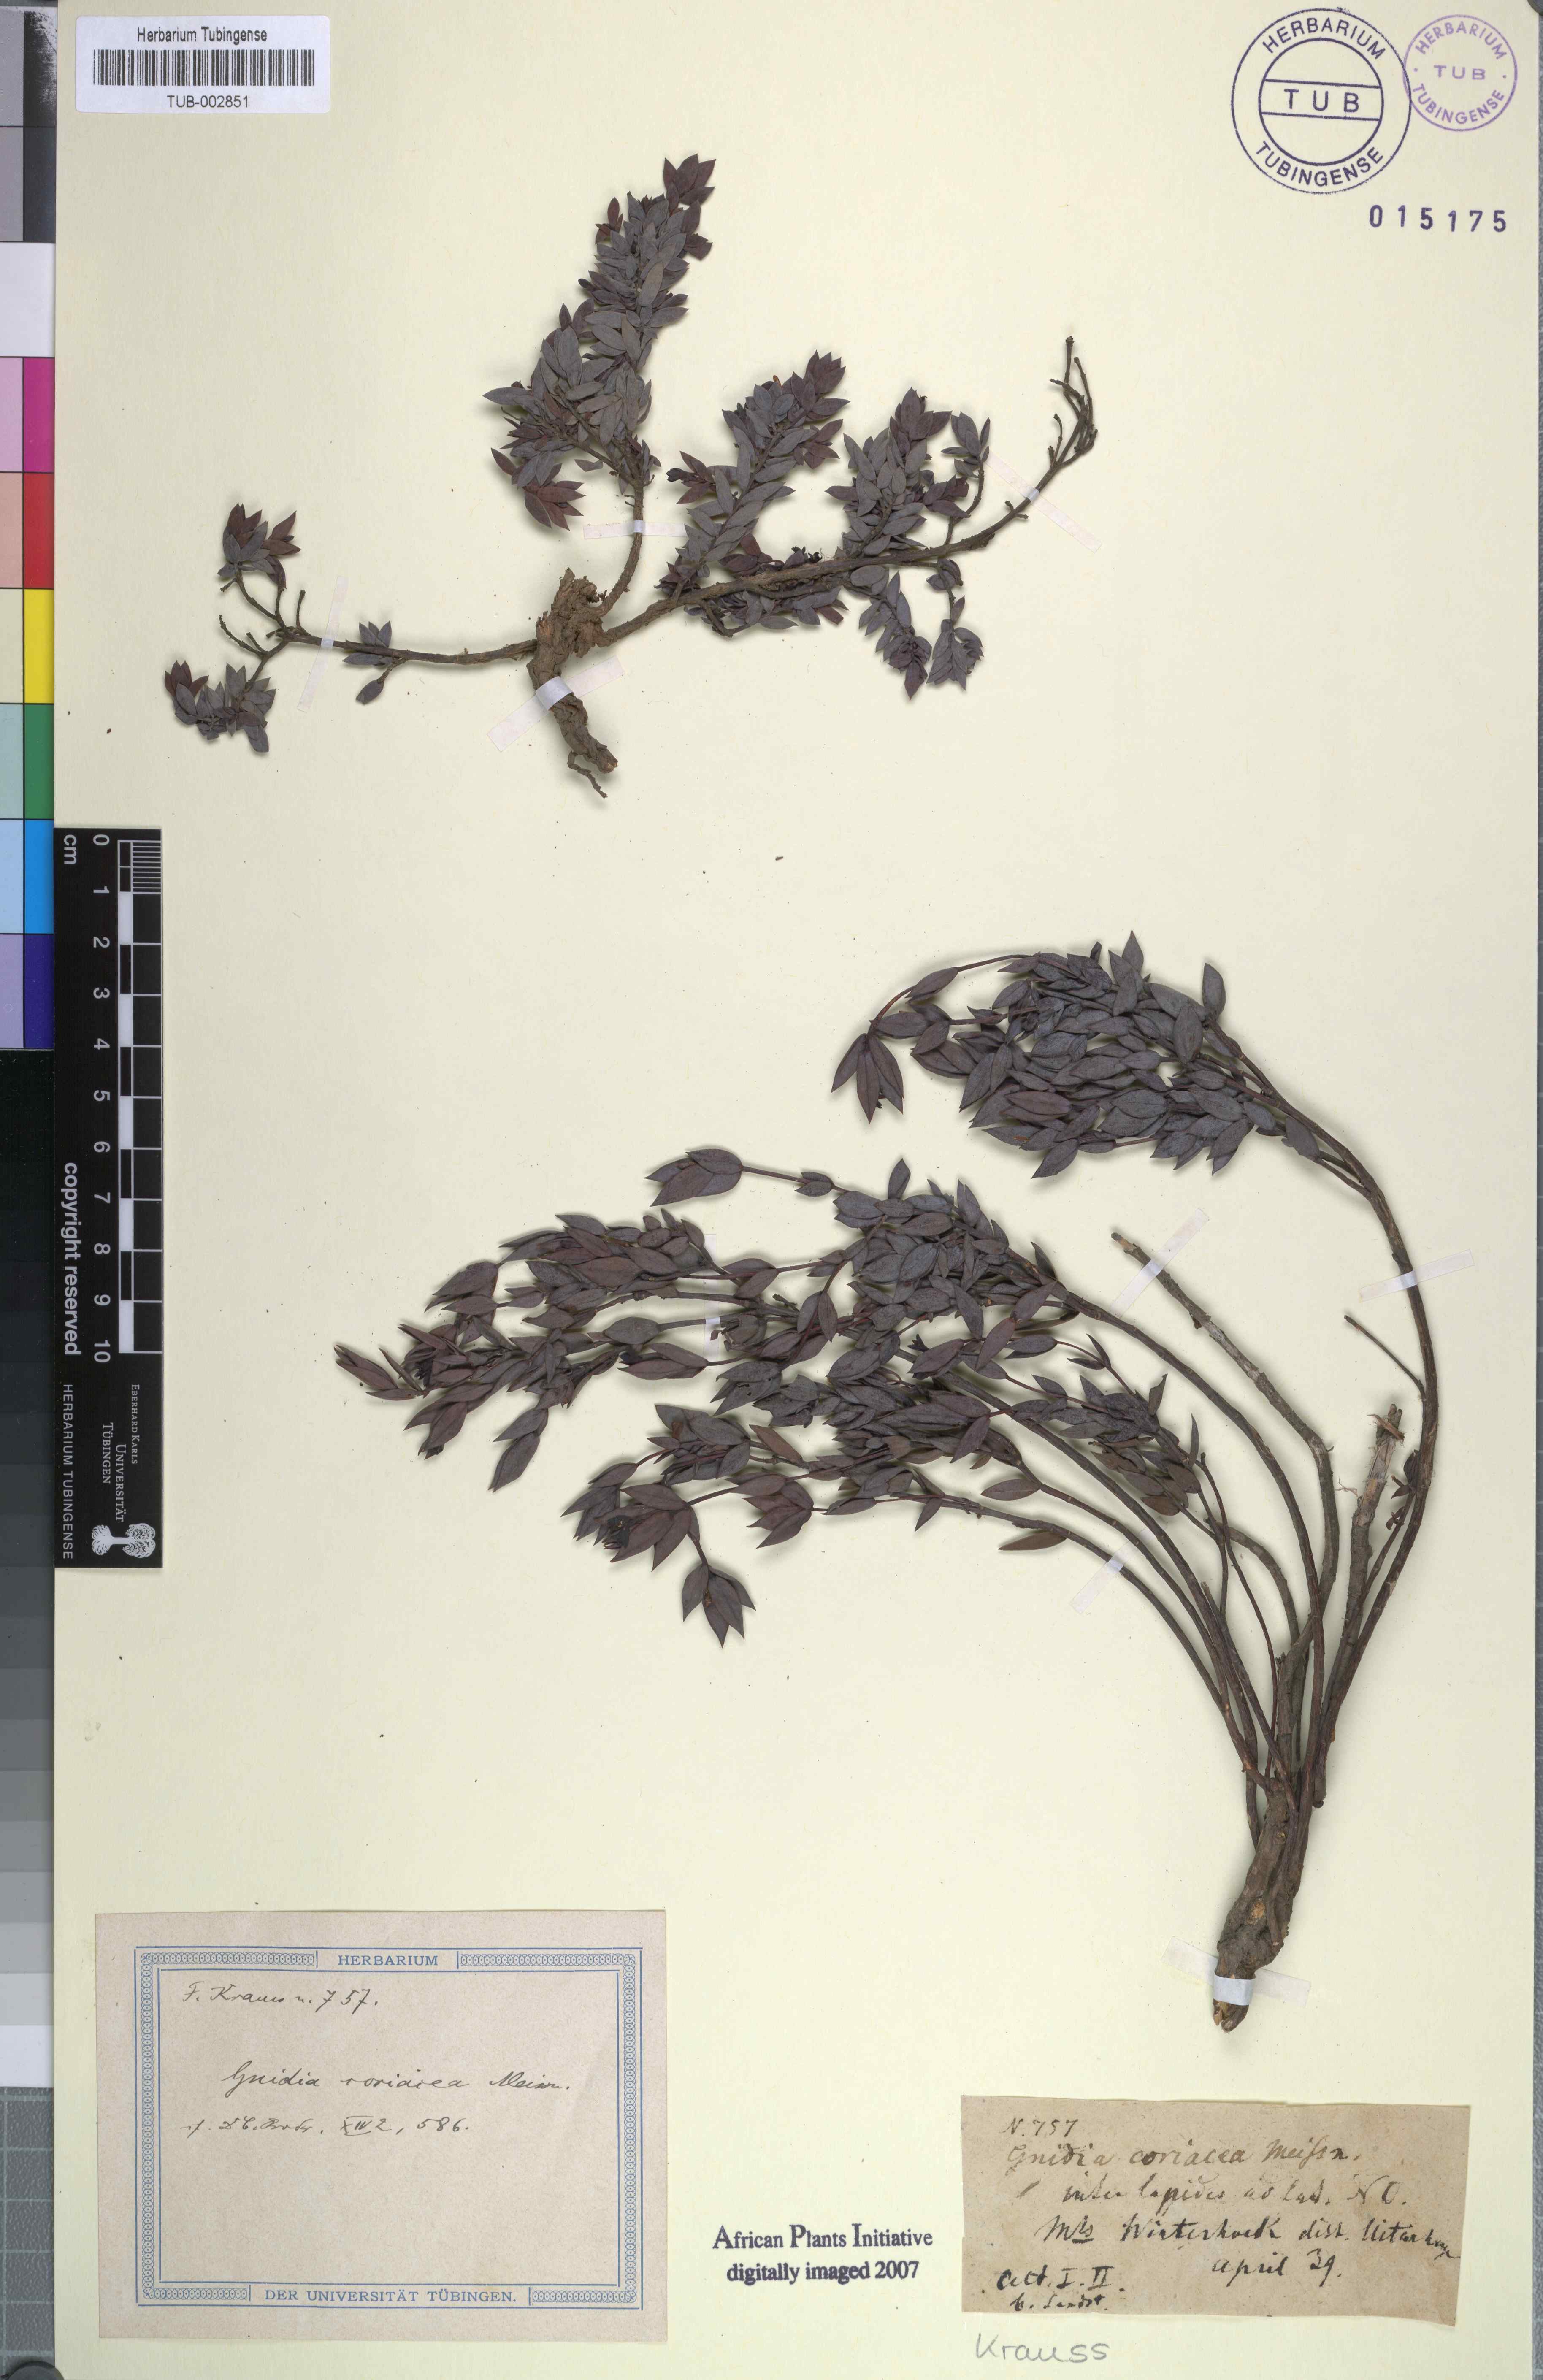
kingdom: Plantae
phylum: Tracheophyta
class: Magnoliopsida
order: Malvales
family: Thymelaeaceae
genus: Gnidia
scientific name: Gnidia coriacea
